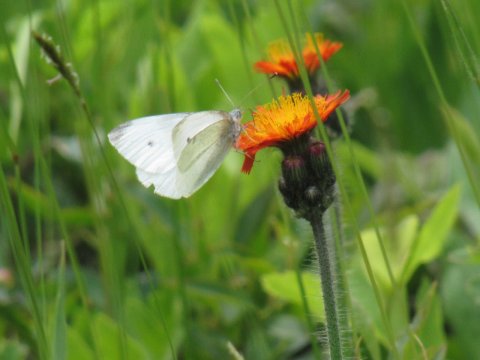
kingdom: Animalia
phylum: Arthropoda
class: Insecta
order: Lepidoptera
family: Pieridae
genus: Pieris
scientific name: Pieris rapae
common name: Cabbage White
